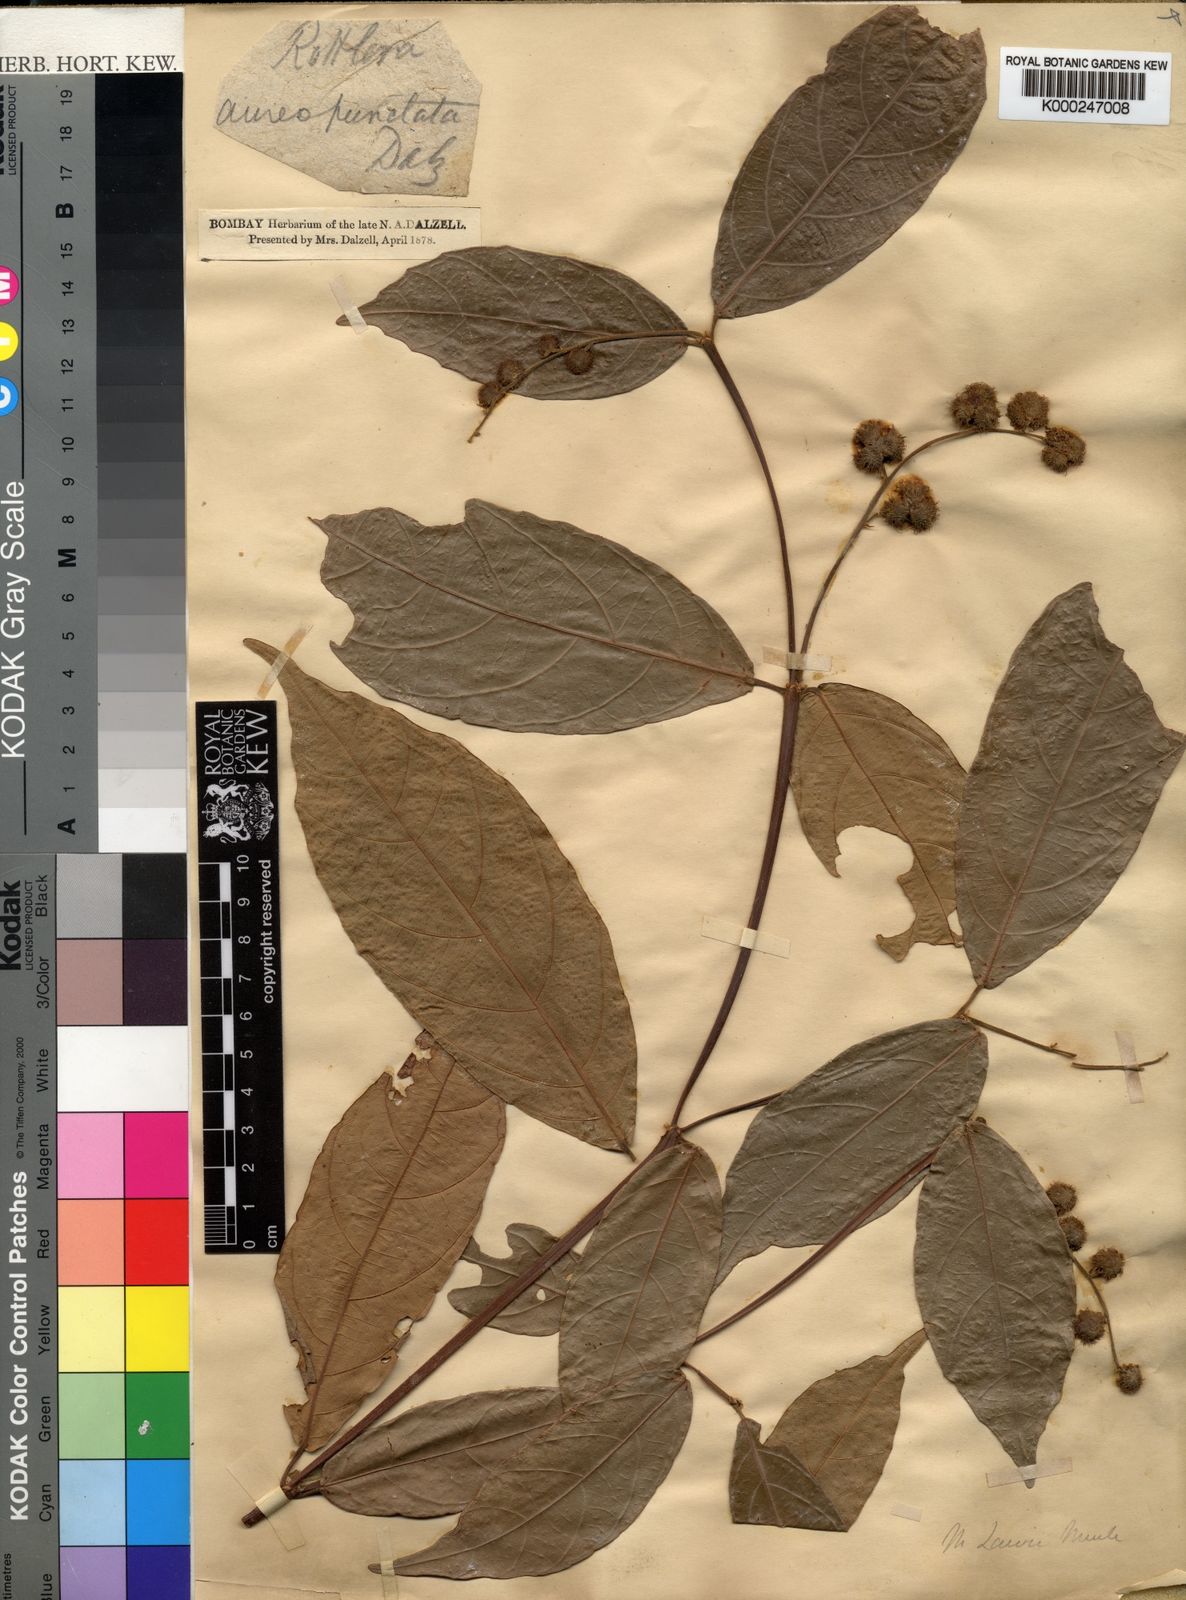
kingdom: Plantae
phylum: Tracheophyta
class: Magnoliopsida
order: Malpighiales
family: Euphorbiaceae
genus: Mallotus
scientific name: Mallotus resinosus
